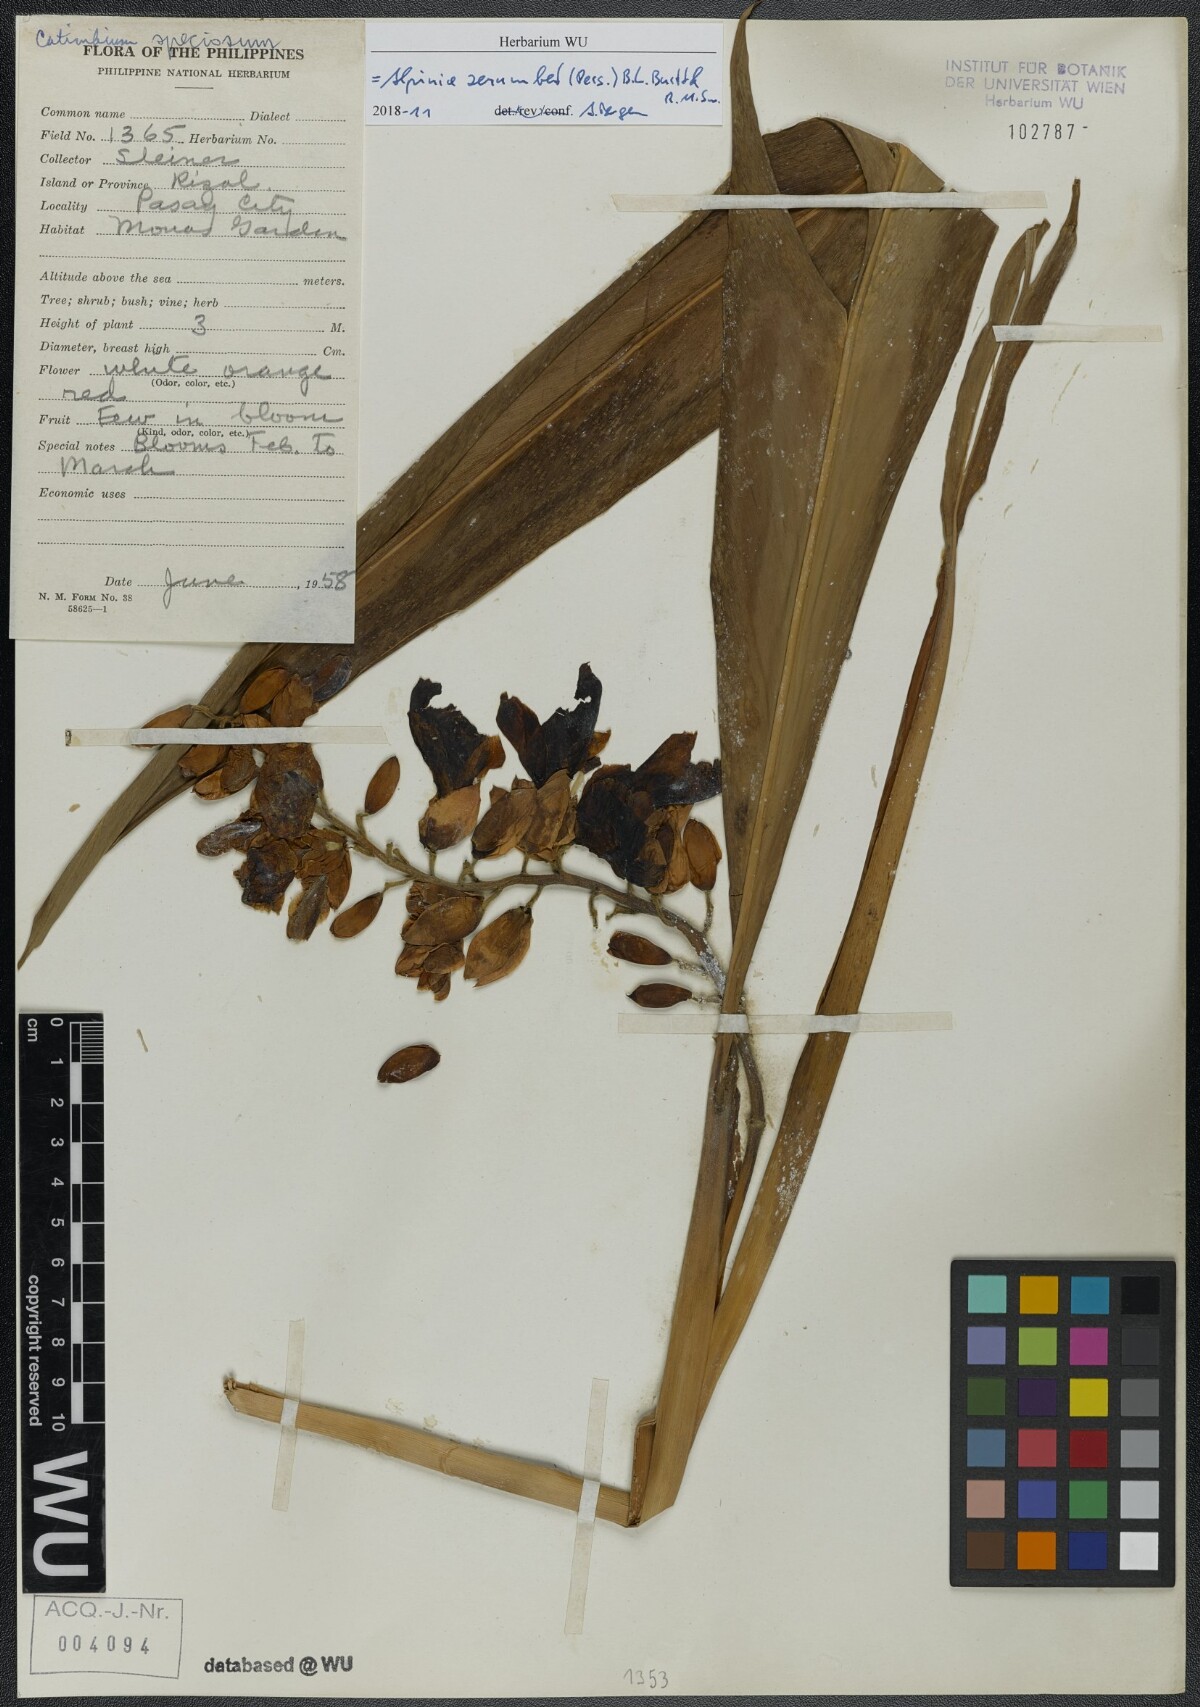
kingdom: Plantae
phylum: Tracheophyta
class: Liliopsida
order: Zingiberales
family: Zingiberaceae
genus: Alpinia
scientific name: Alpinia zerumbet
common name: Shellplant
